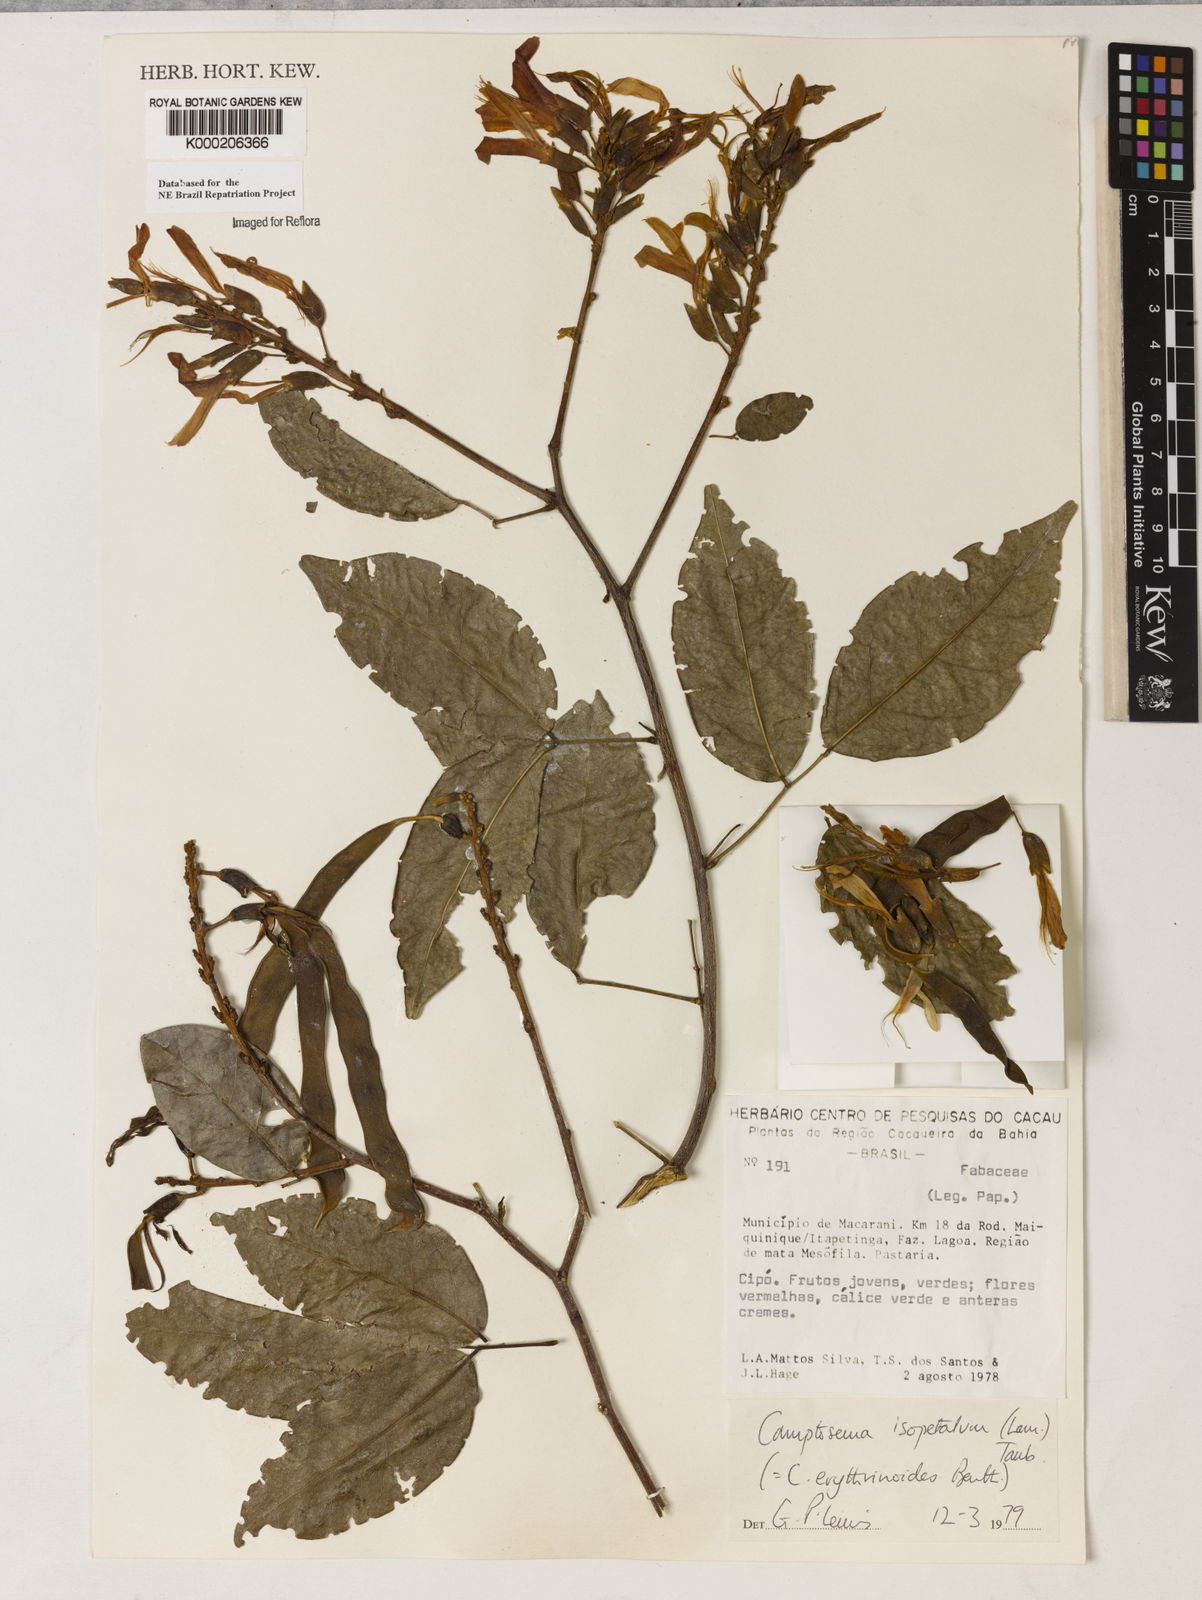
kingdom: Plantae
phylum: Tracheophyta
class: Magnoliopsida
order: Fabales
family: Fabaceae
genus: Cratylia
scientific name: Cratylia isopetala
